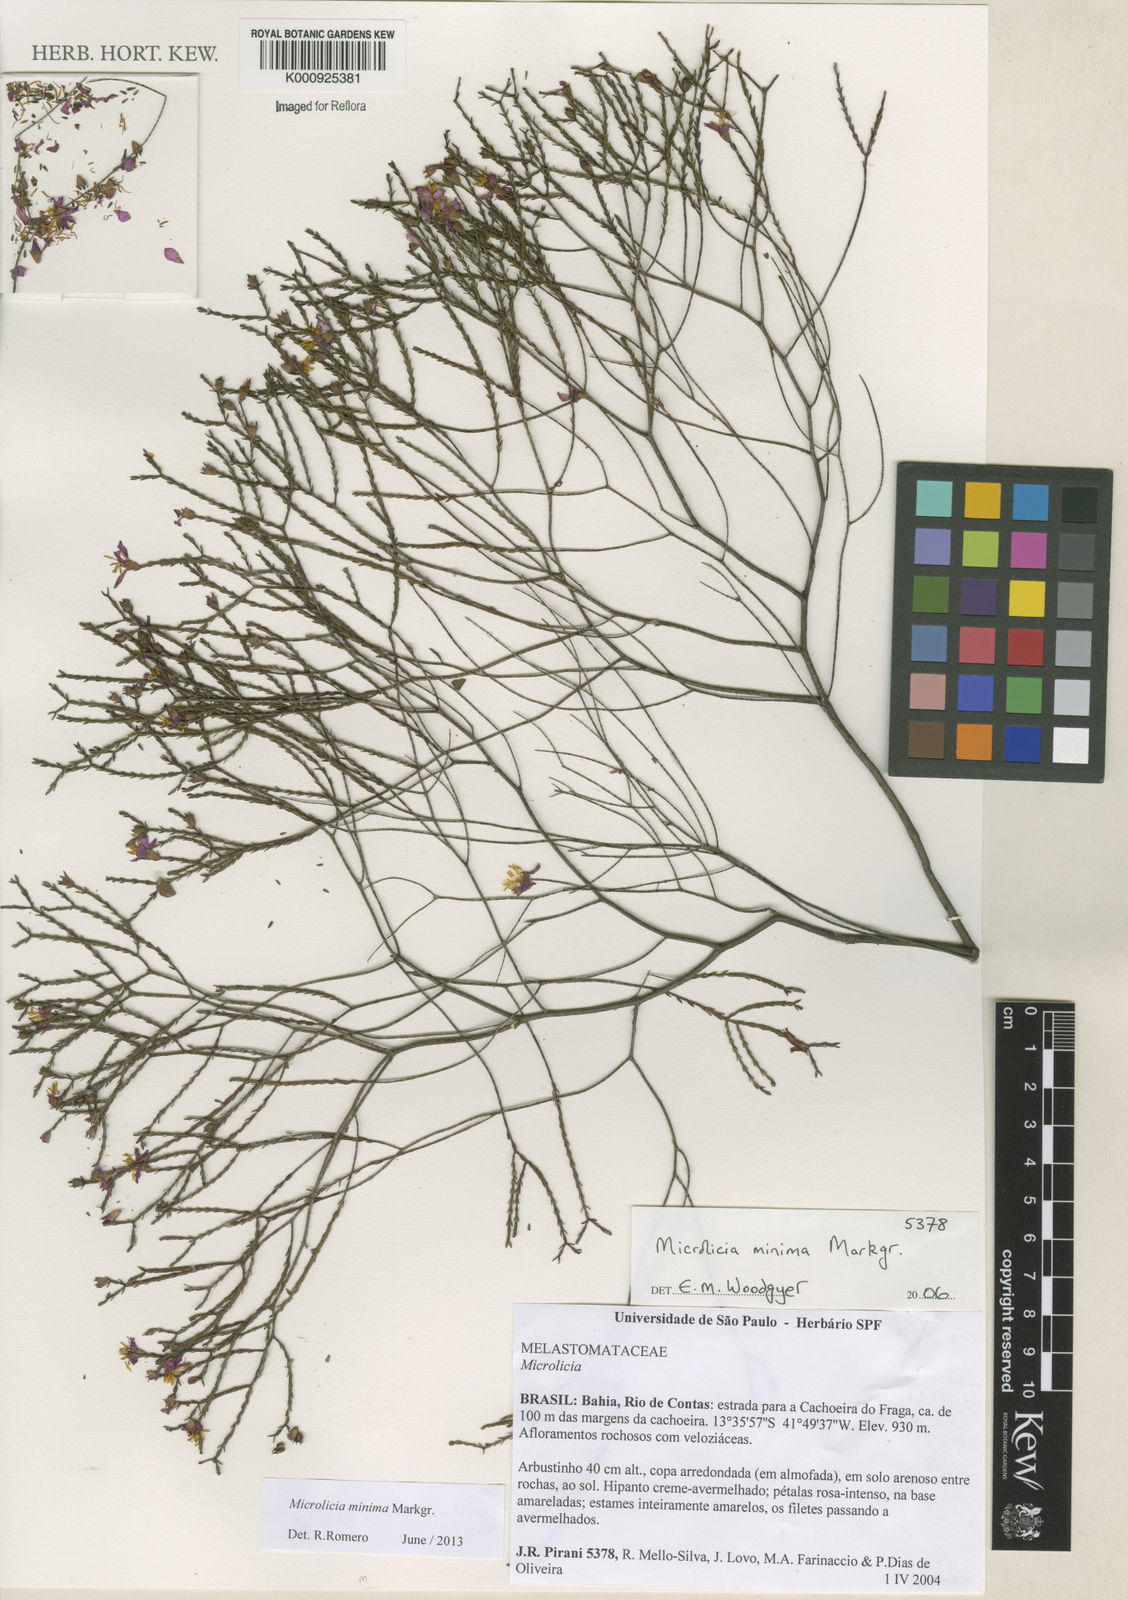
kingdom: Plantae
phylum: Tracheophyta
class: Magnoliopsida
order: Myrtales
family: Melastomataceae
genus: Microlicia
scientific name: Microlicia minima
